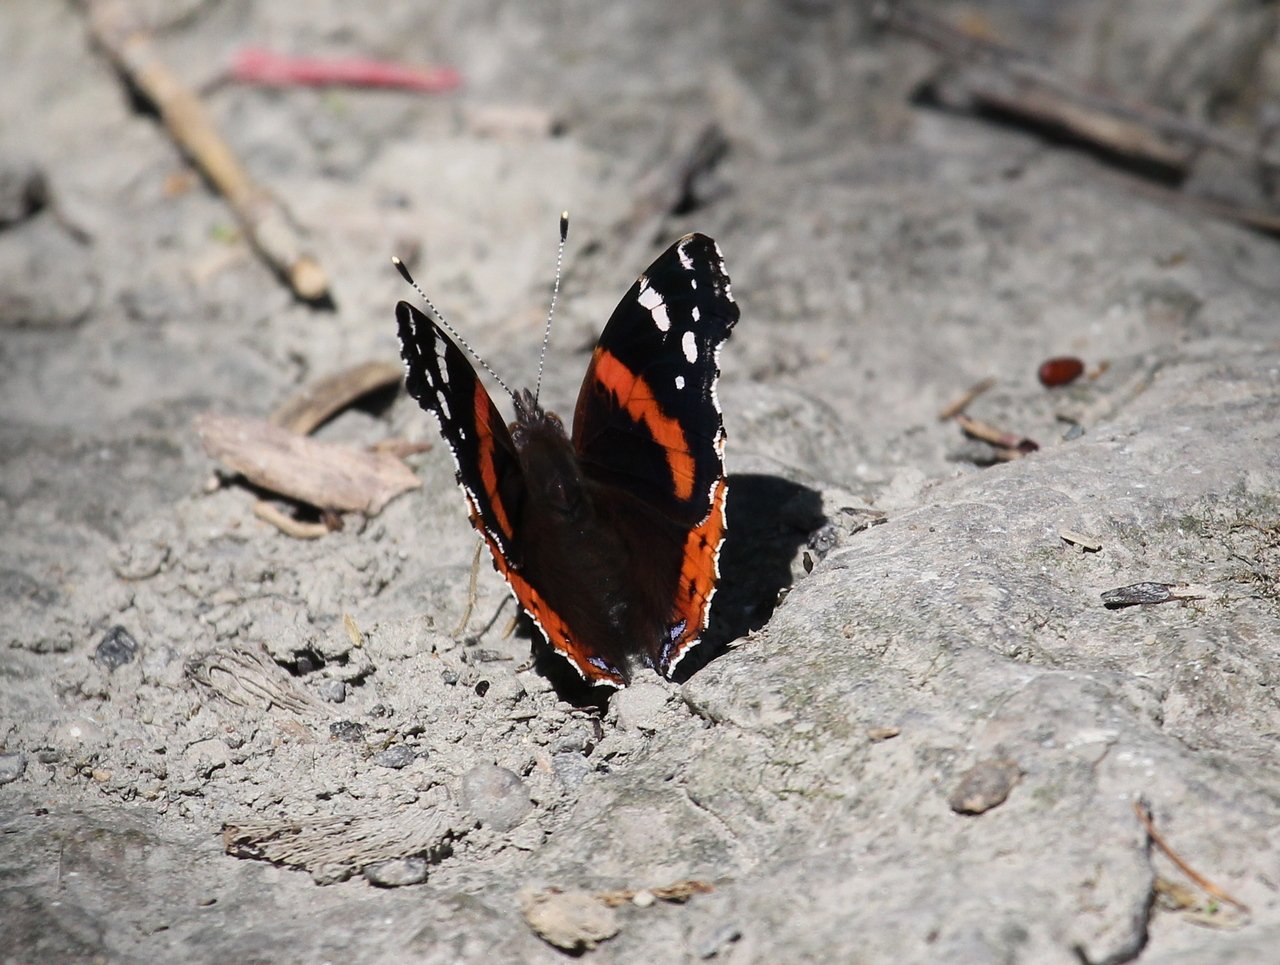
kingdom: Animalia
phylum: Arthropoda
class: Insecta
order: Lepidoptera
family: Nymphalidae
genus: Vanessa
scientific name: Vanessa atalanta
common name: Red Admiral
